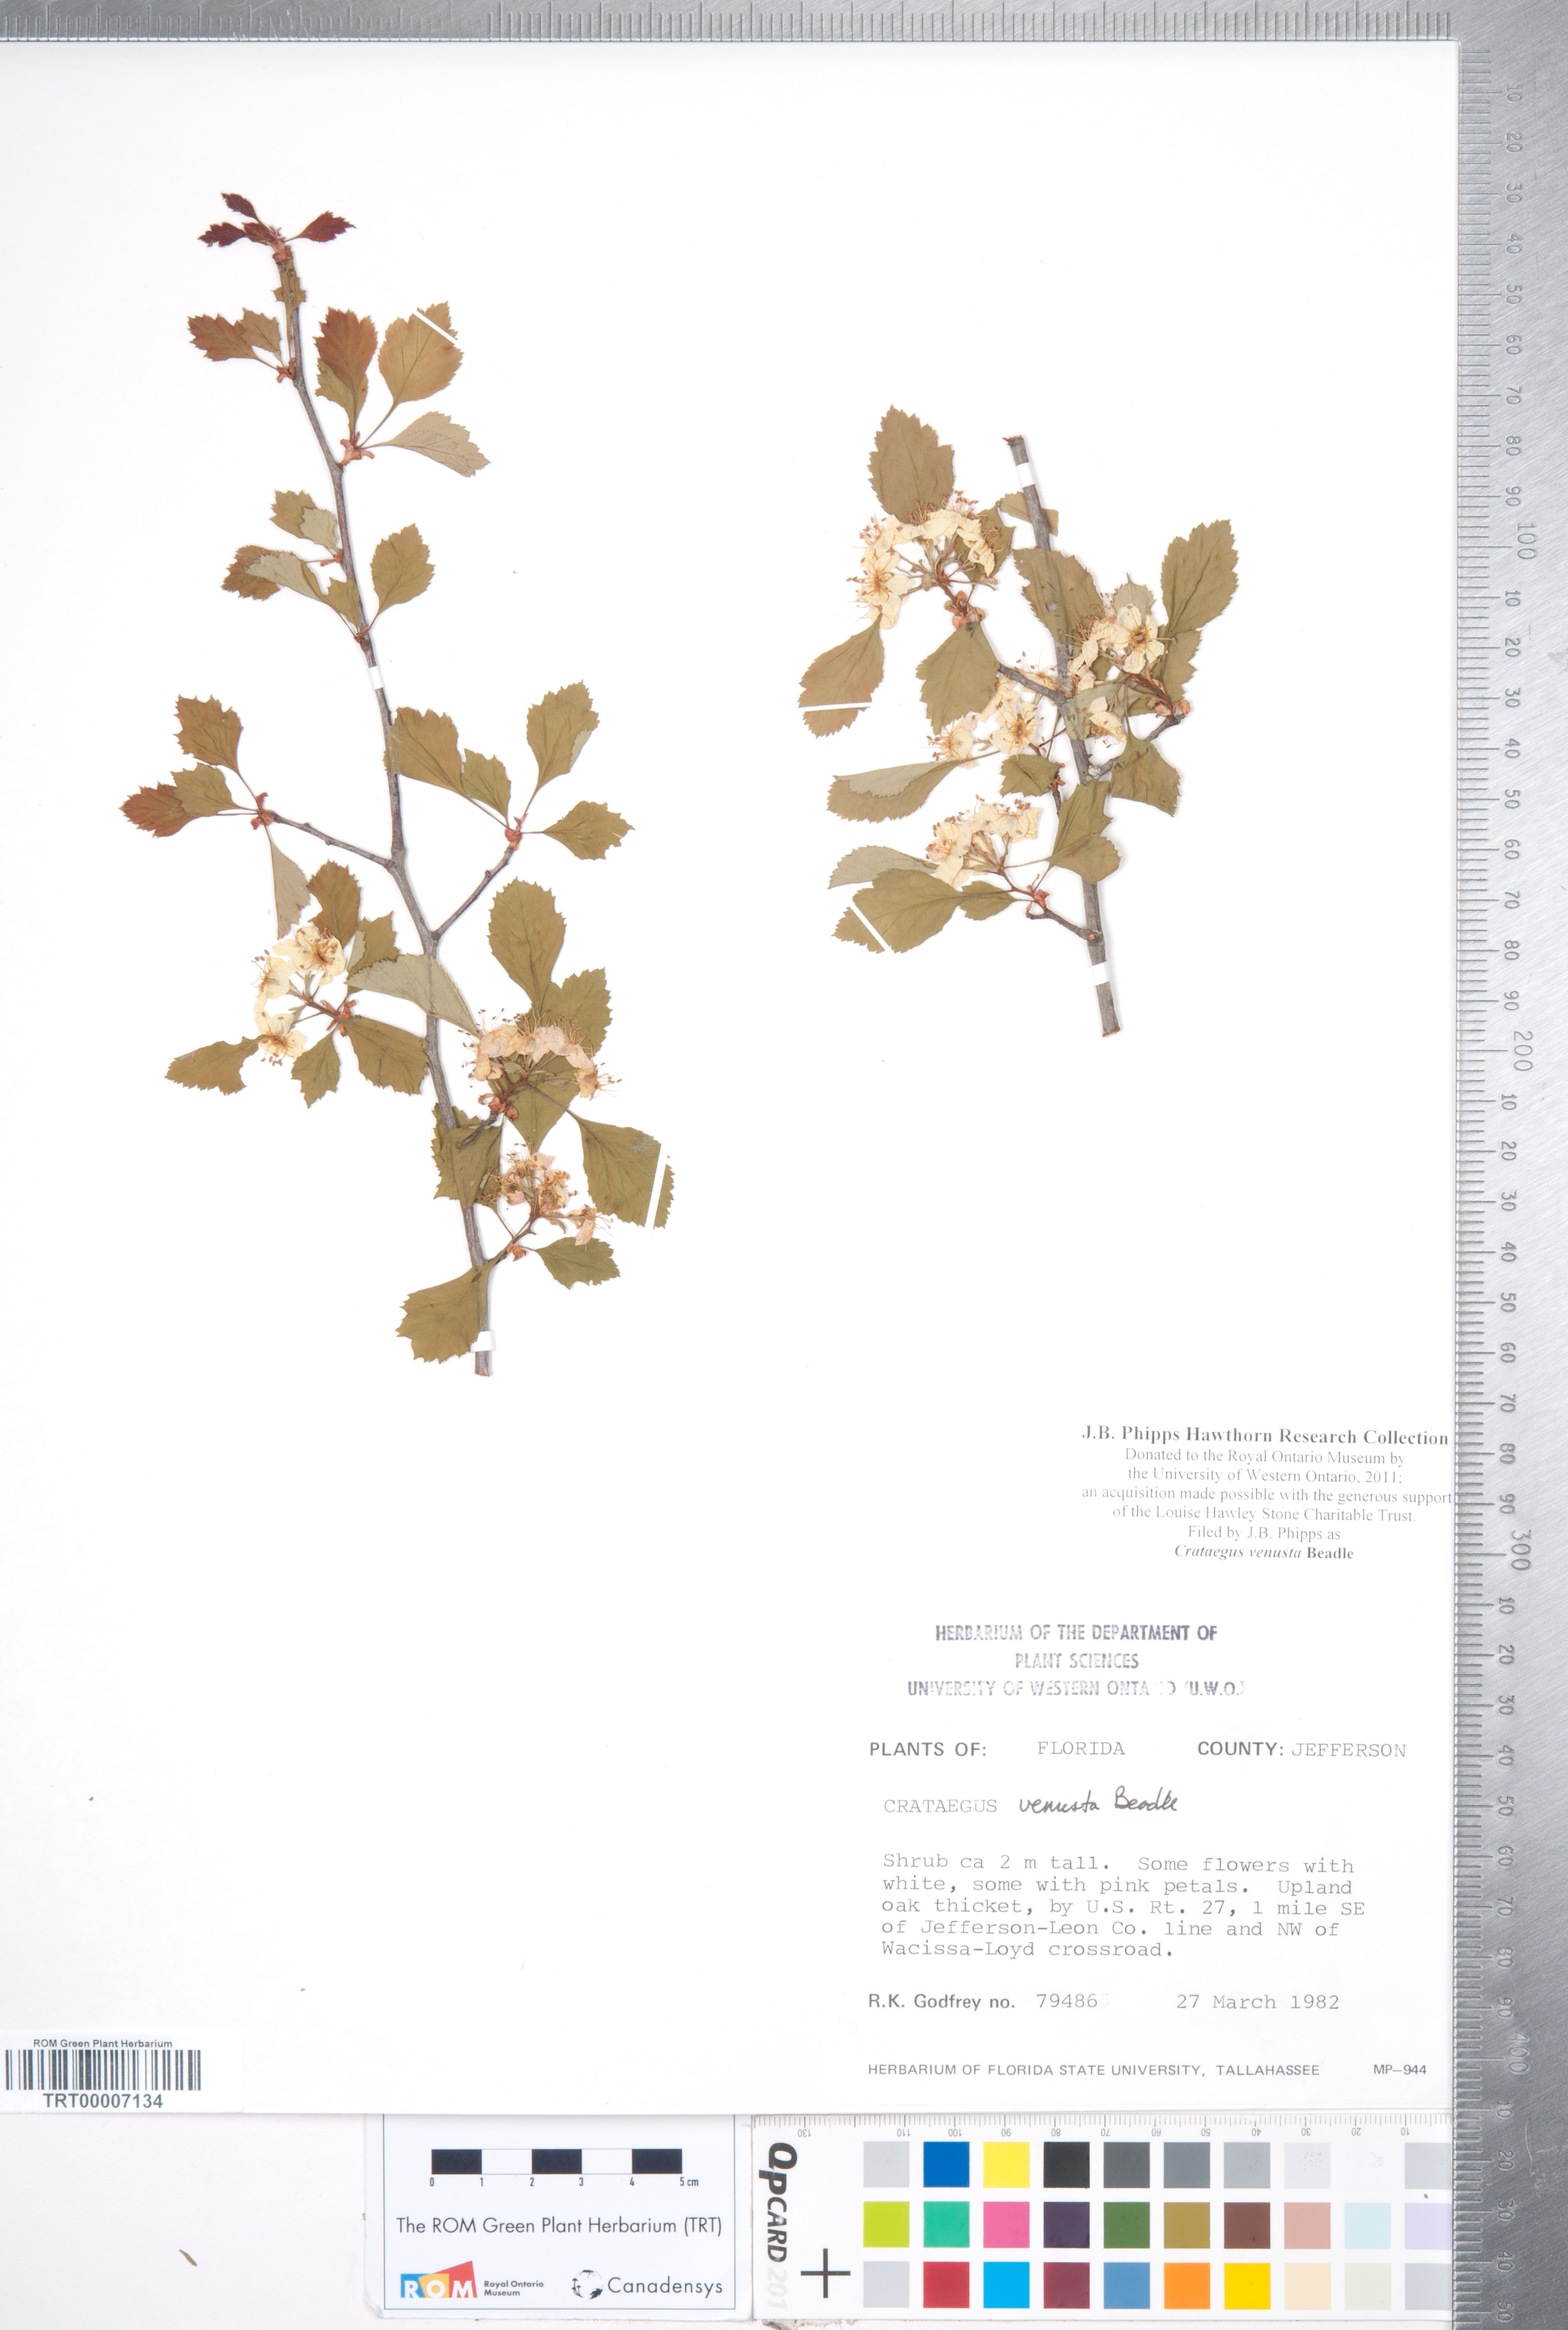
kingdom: Plantae
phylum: Tracheophyta
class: Magnoliopsida
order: Rosales
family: Rosaceae
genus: Crataegus
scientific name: Crataegus venusta
